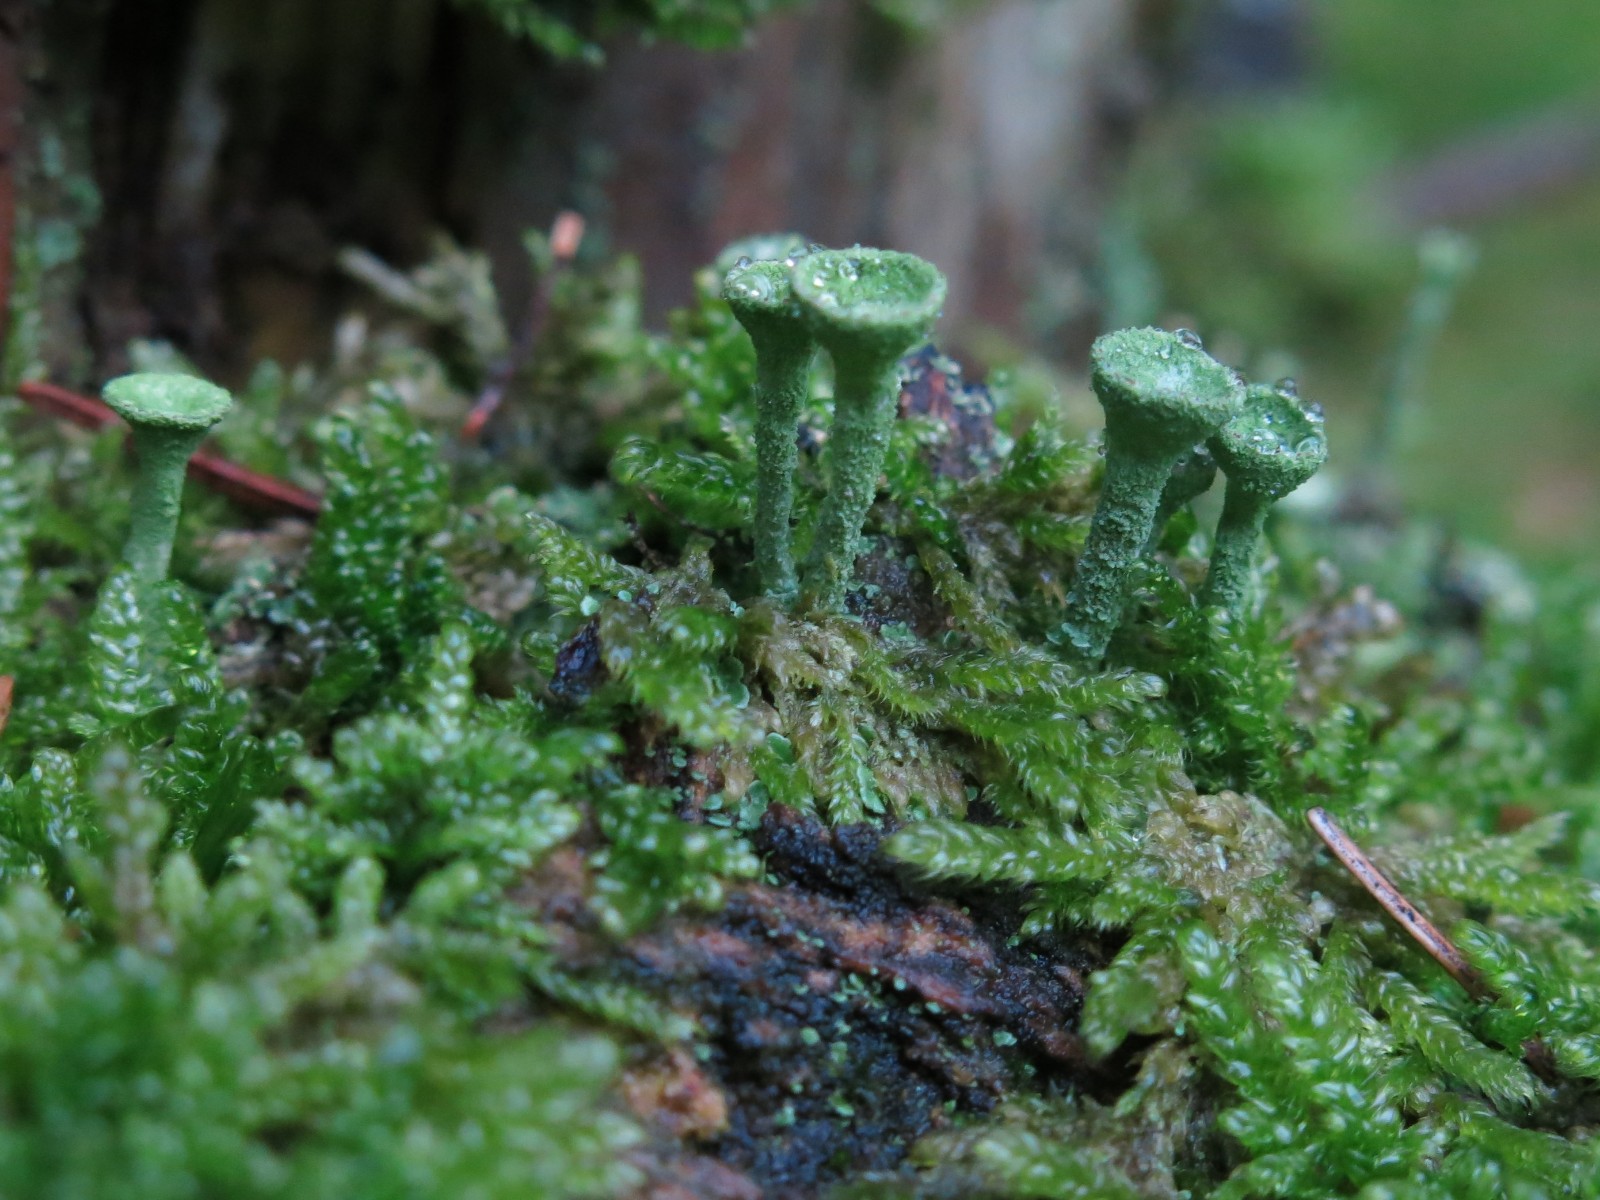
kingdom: Fungi
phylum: Ascomycota
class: Lecanoromycetes
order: Lecanorales
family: Cladoniaceae
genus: Cladonia
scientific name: Cladonia
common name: brungrøn bægerlav
